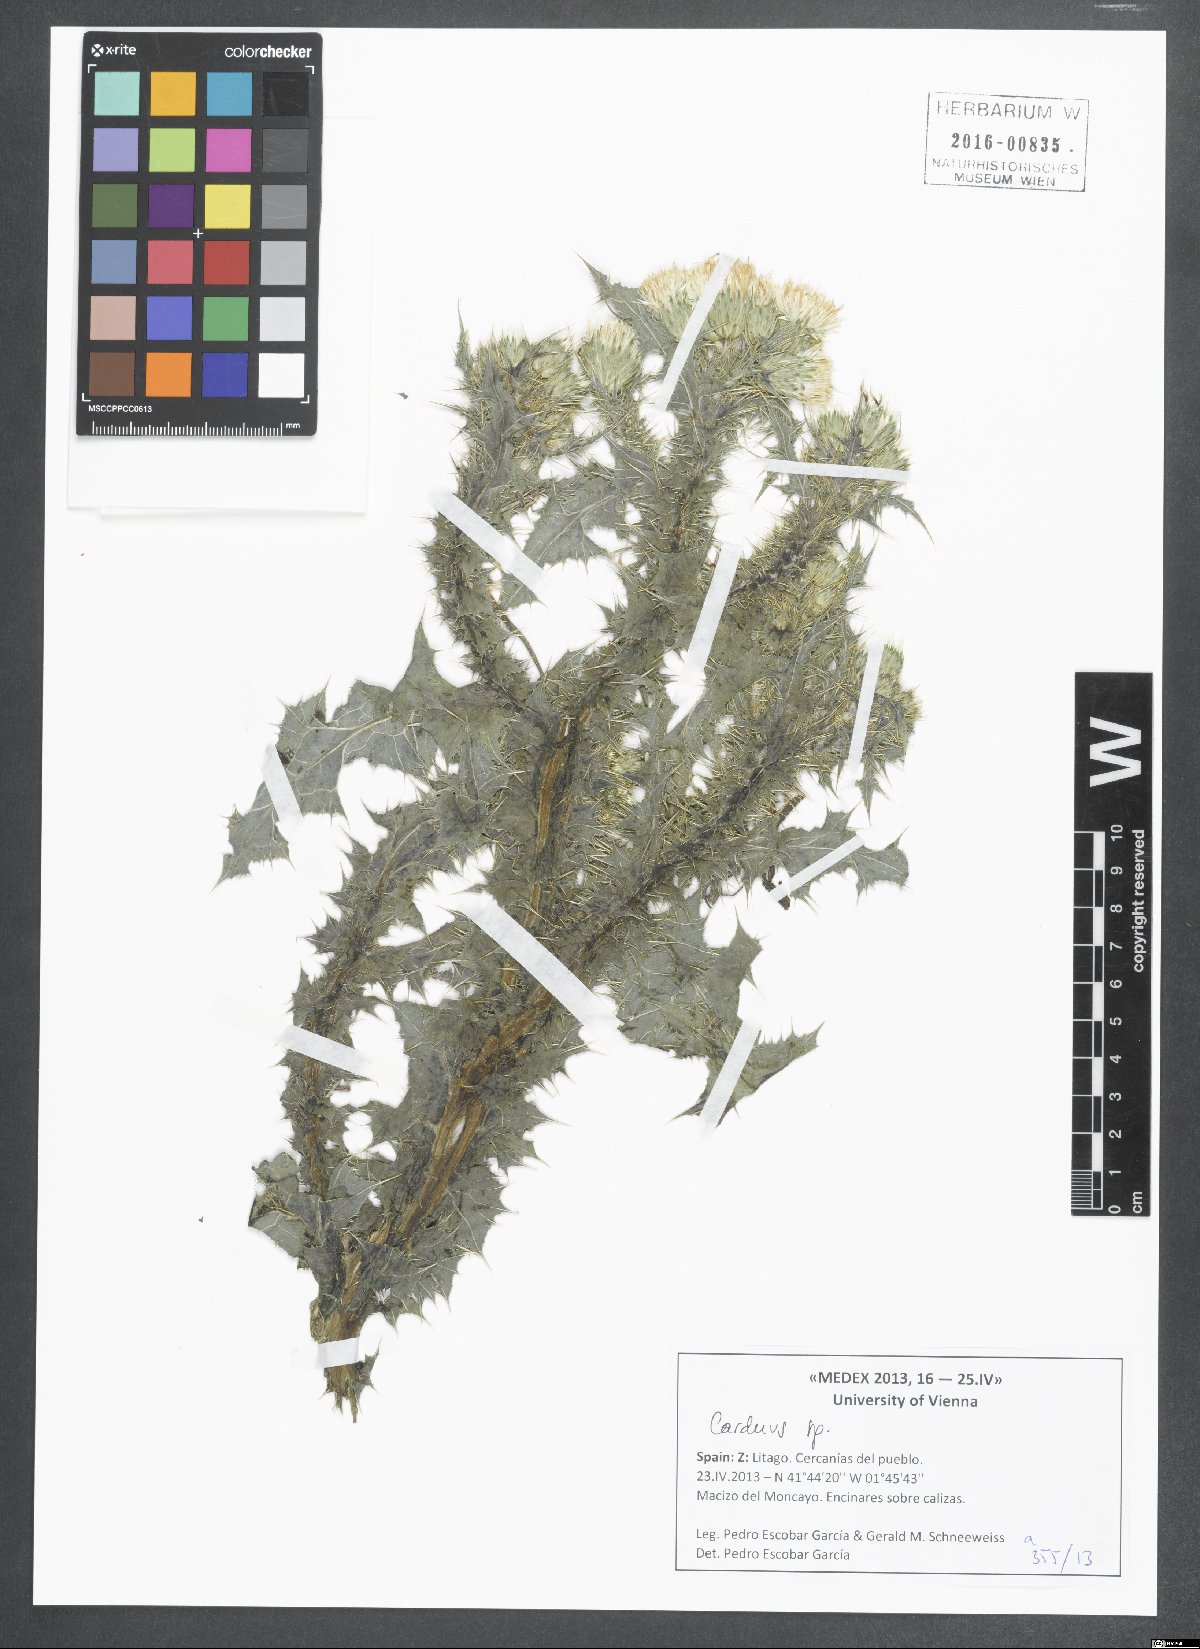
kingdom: Plantae
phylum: Tracheophyta
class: Magnoliopsida
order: Asterales
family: Asteraceae
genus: Carduus
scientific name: Carduus
